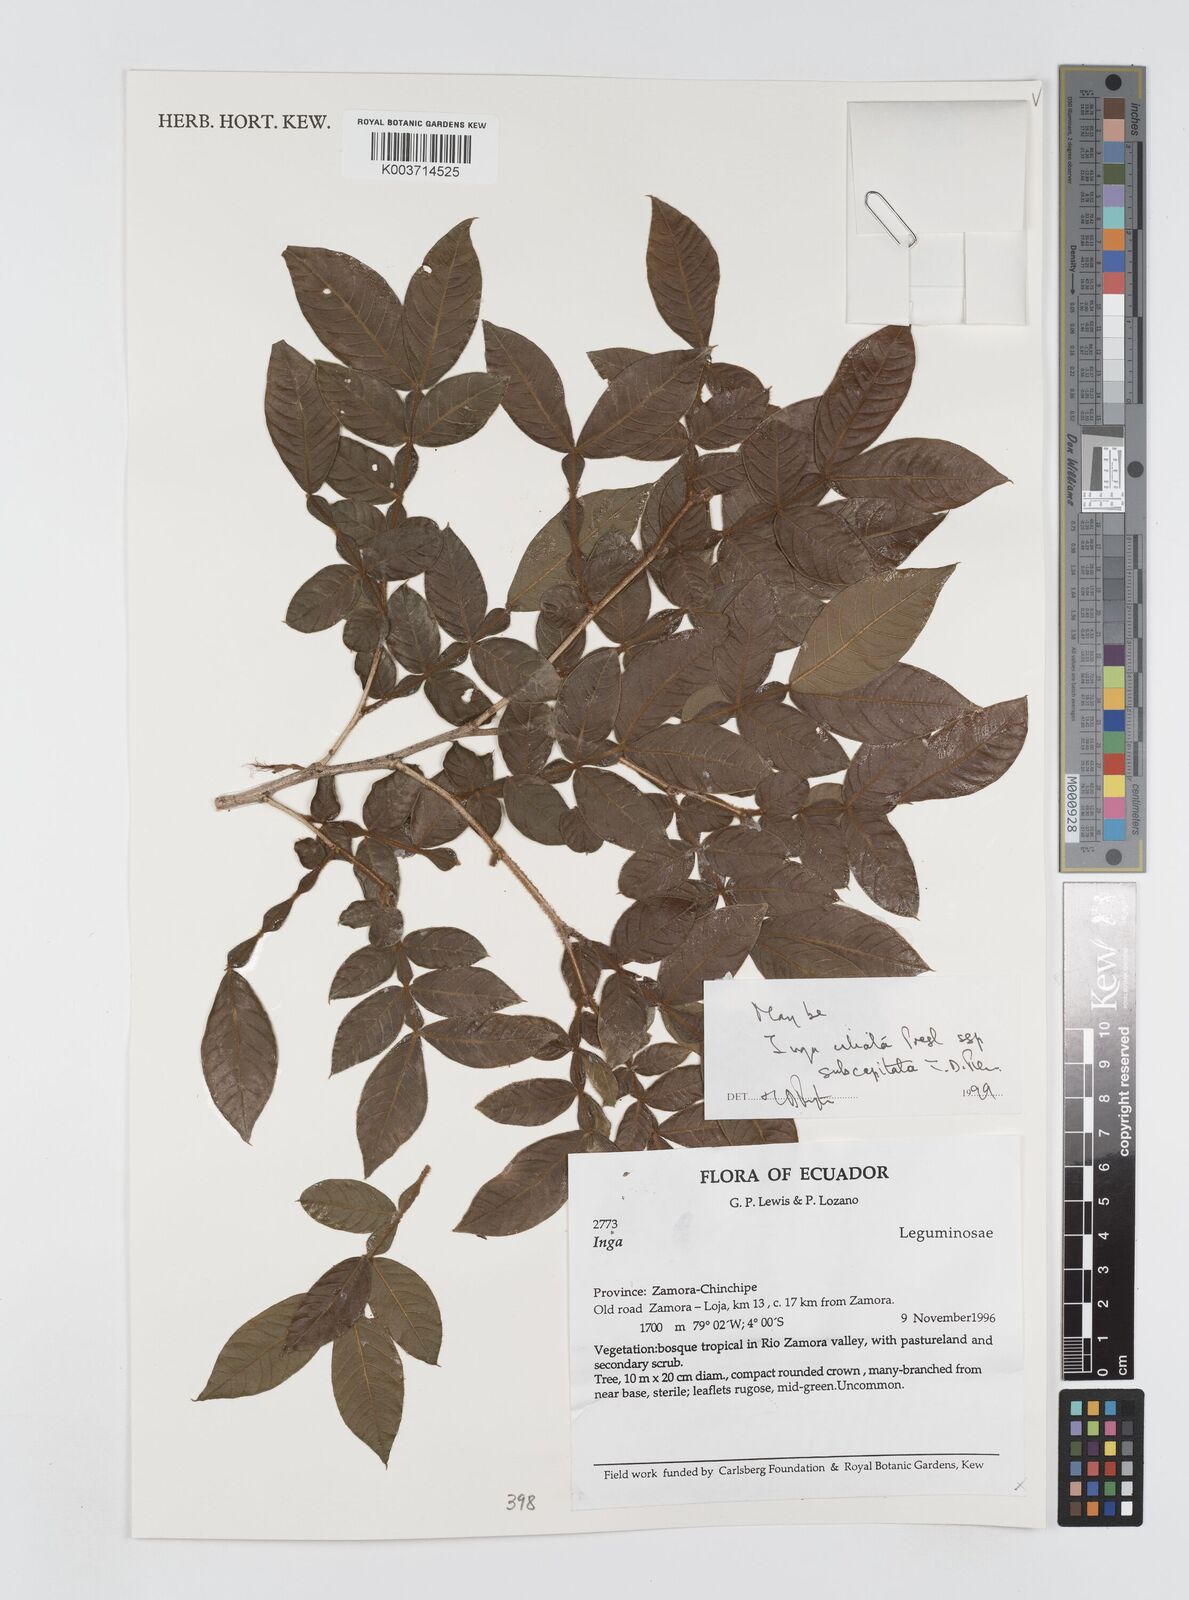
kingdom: Plantae
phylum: Tracheophyta
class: Magnoliopsida
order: Fabales
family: Fabaceae
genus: Inga
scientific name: Inga ciliata
